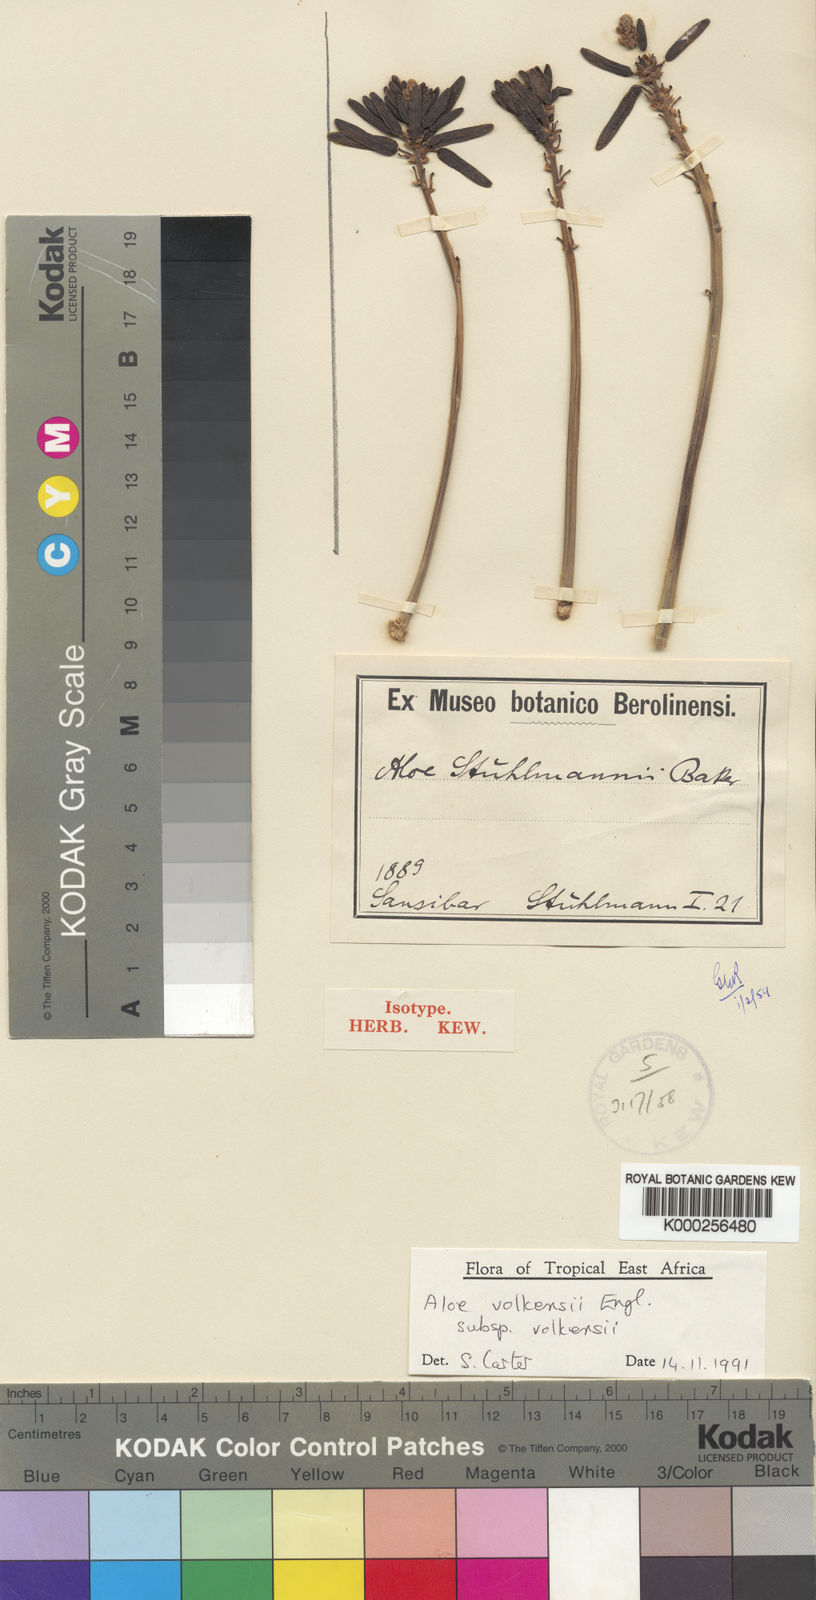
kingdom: Plantae
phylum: Tracheophyta
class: Liliopsida
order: Asparagales
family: Asphodelaceae
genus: Aloe
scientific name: Aloe volkensii
